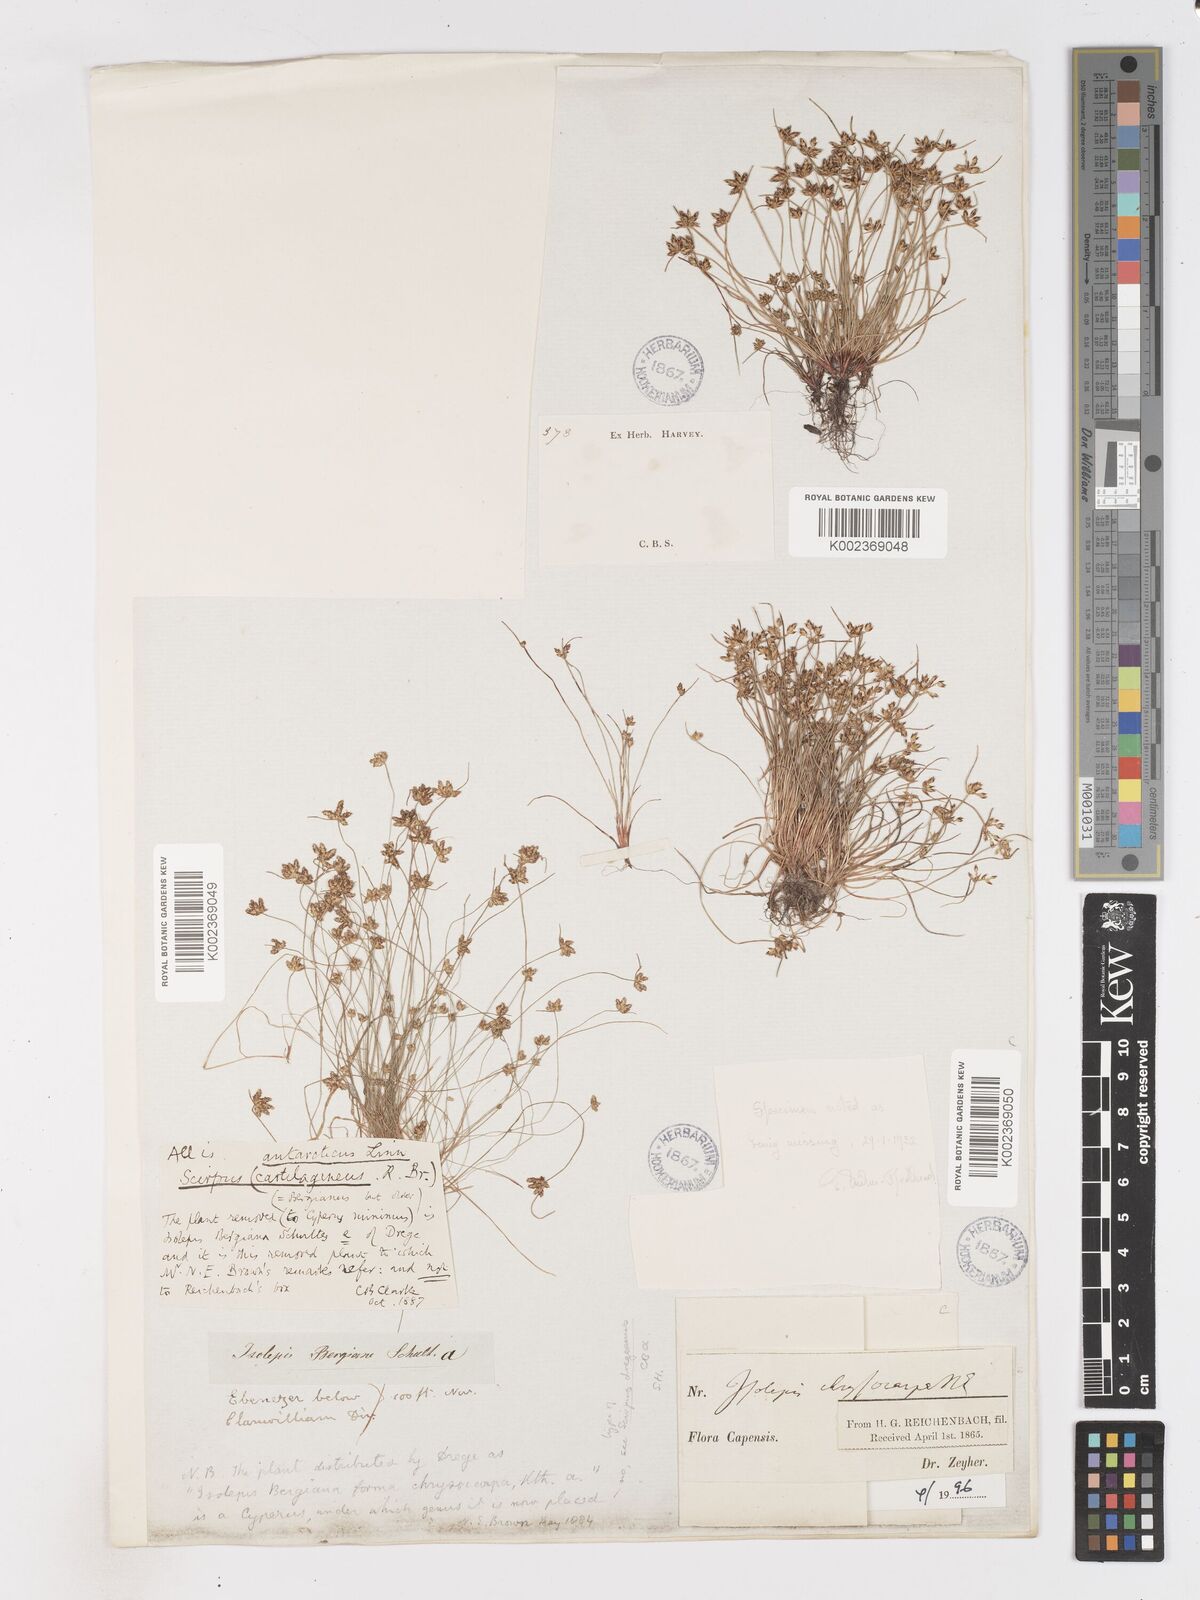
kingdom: Plantae
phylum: Tracheophyta
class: Liliopsida
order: Poales
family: Cyperaceae
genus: Isolepis
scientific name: Isolepis diabolica
